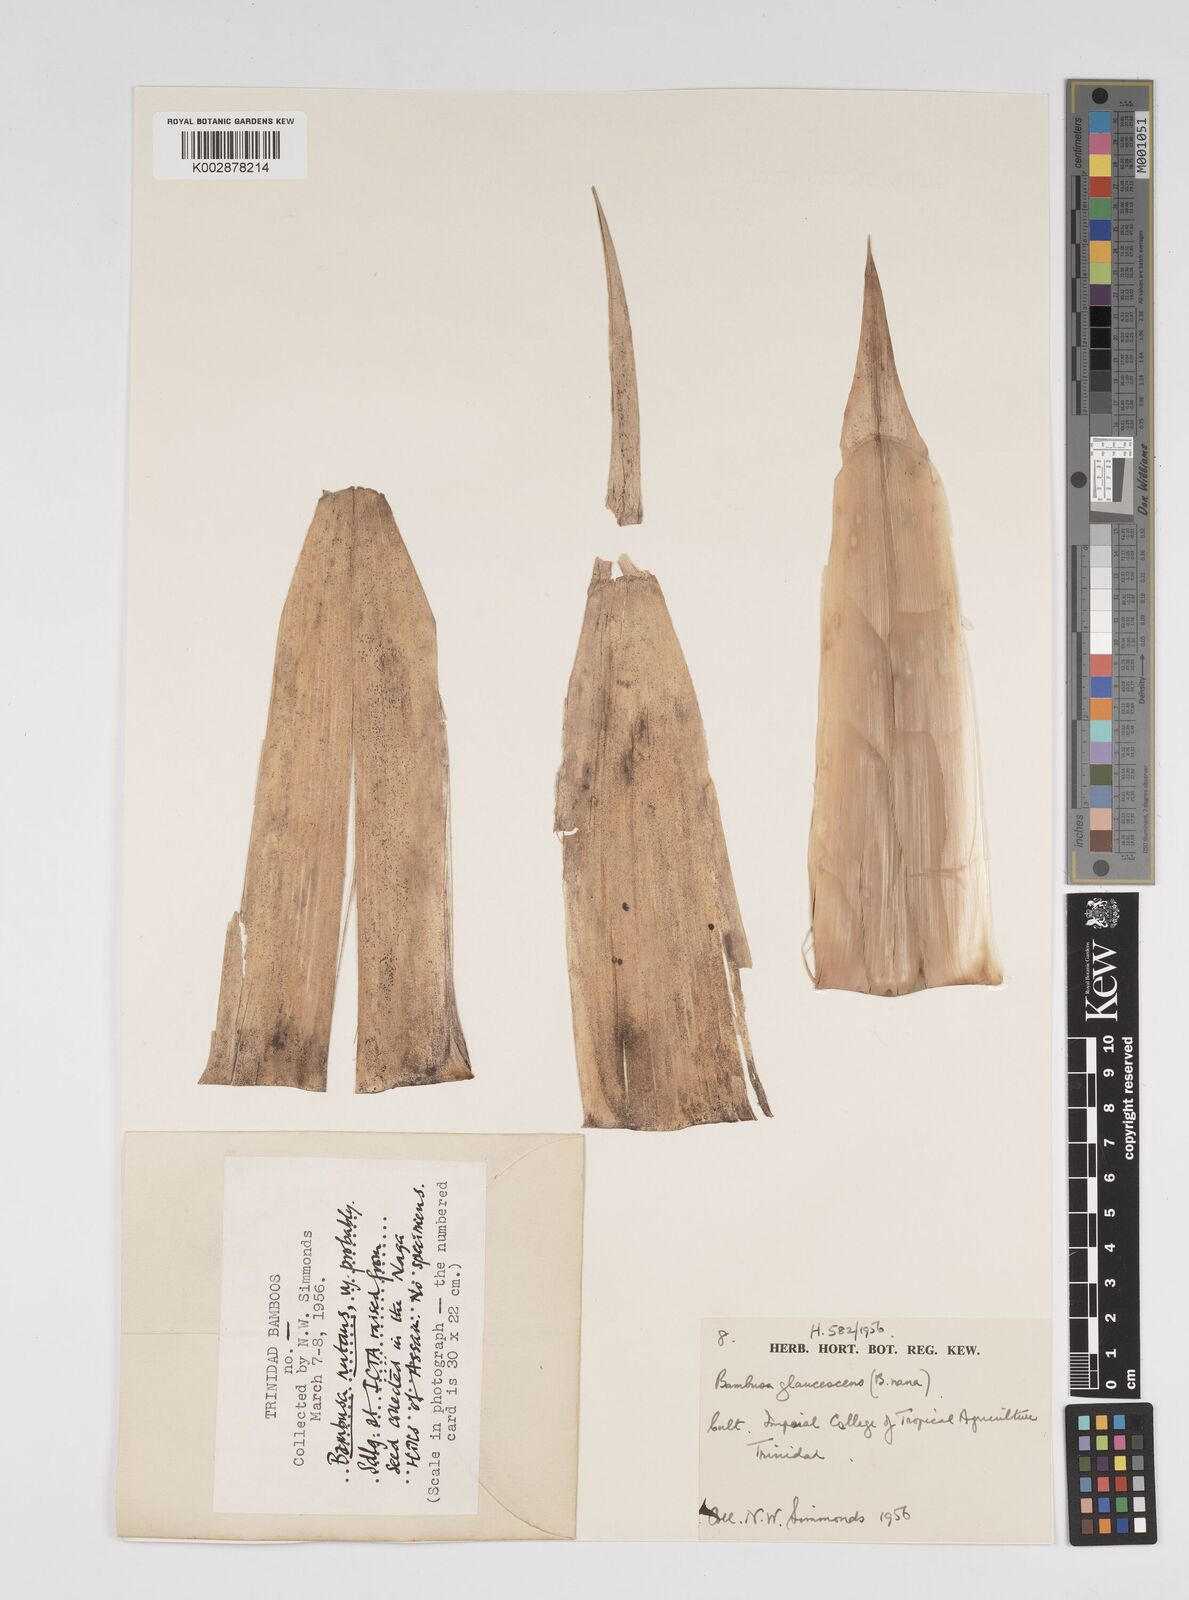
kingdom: Plantae
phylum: Tracheophyta
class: Liliopsida
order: Poales
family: Poaceae
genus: Bambusa
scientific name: Bambusa multiplex
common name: Hedge bamboo
